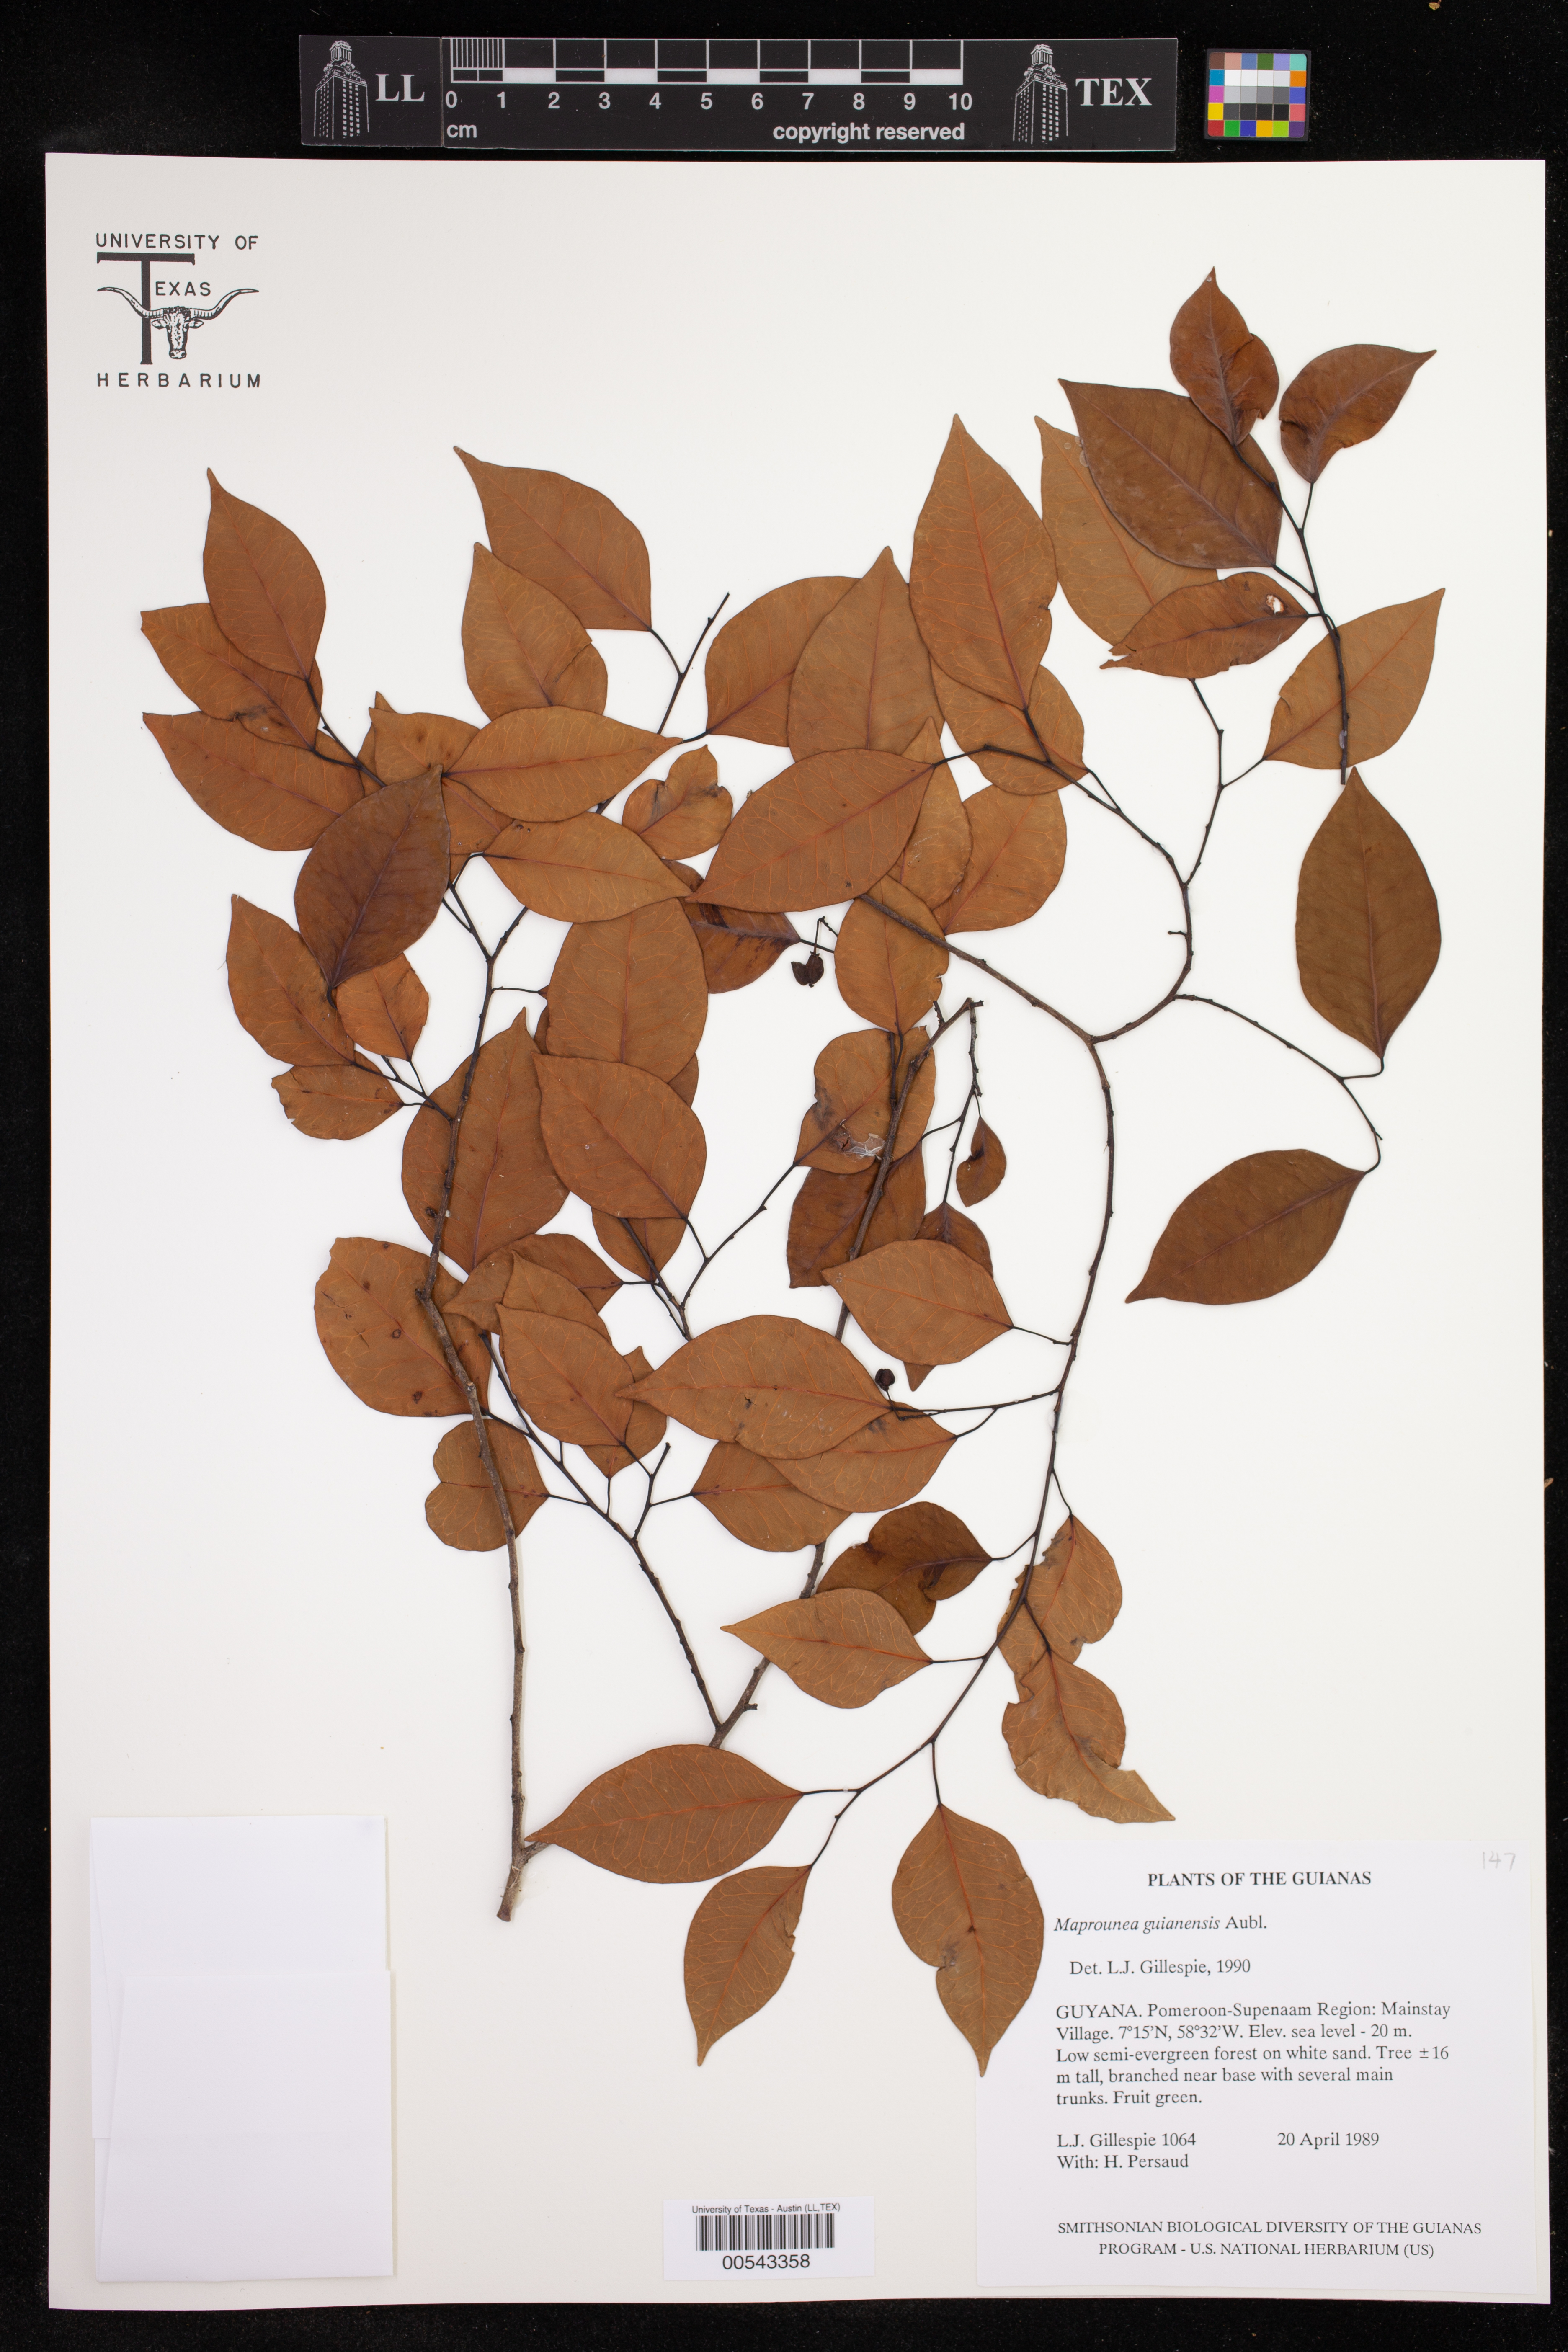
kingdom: Plantae
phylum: Tracheophyta
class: Magnoliopsida
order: Malpighiales
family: Euphorbiaceae
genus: Maprounea
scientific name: Maprounea guianensis
